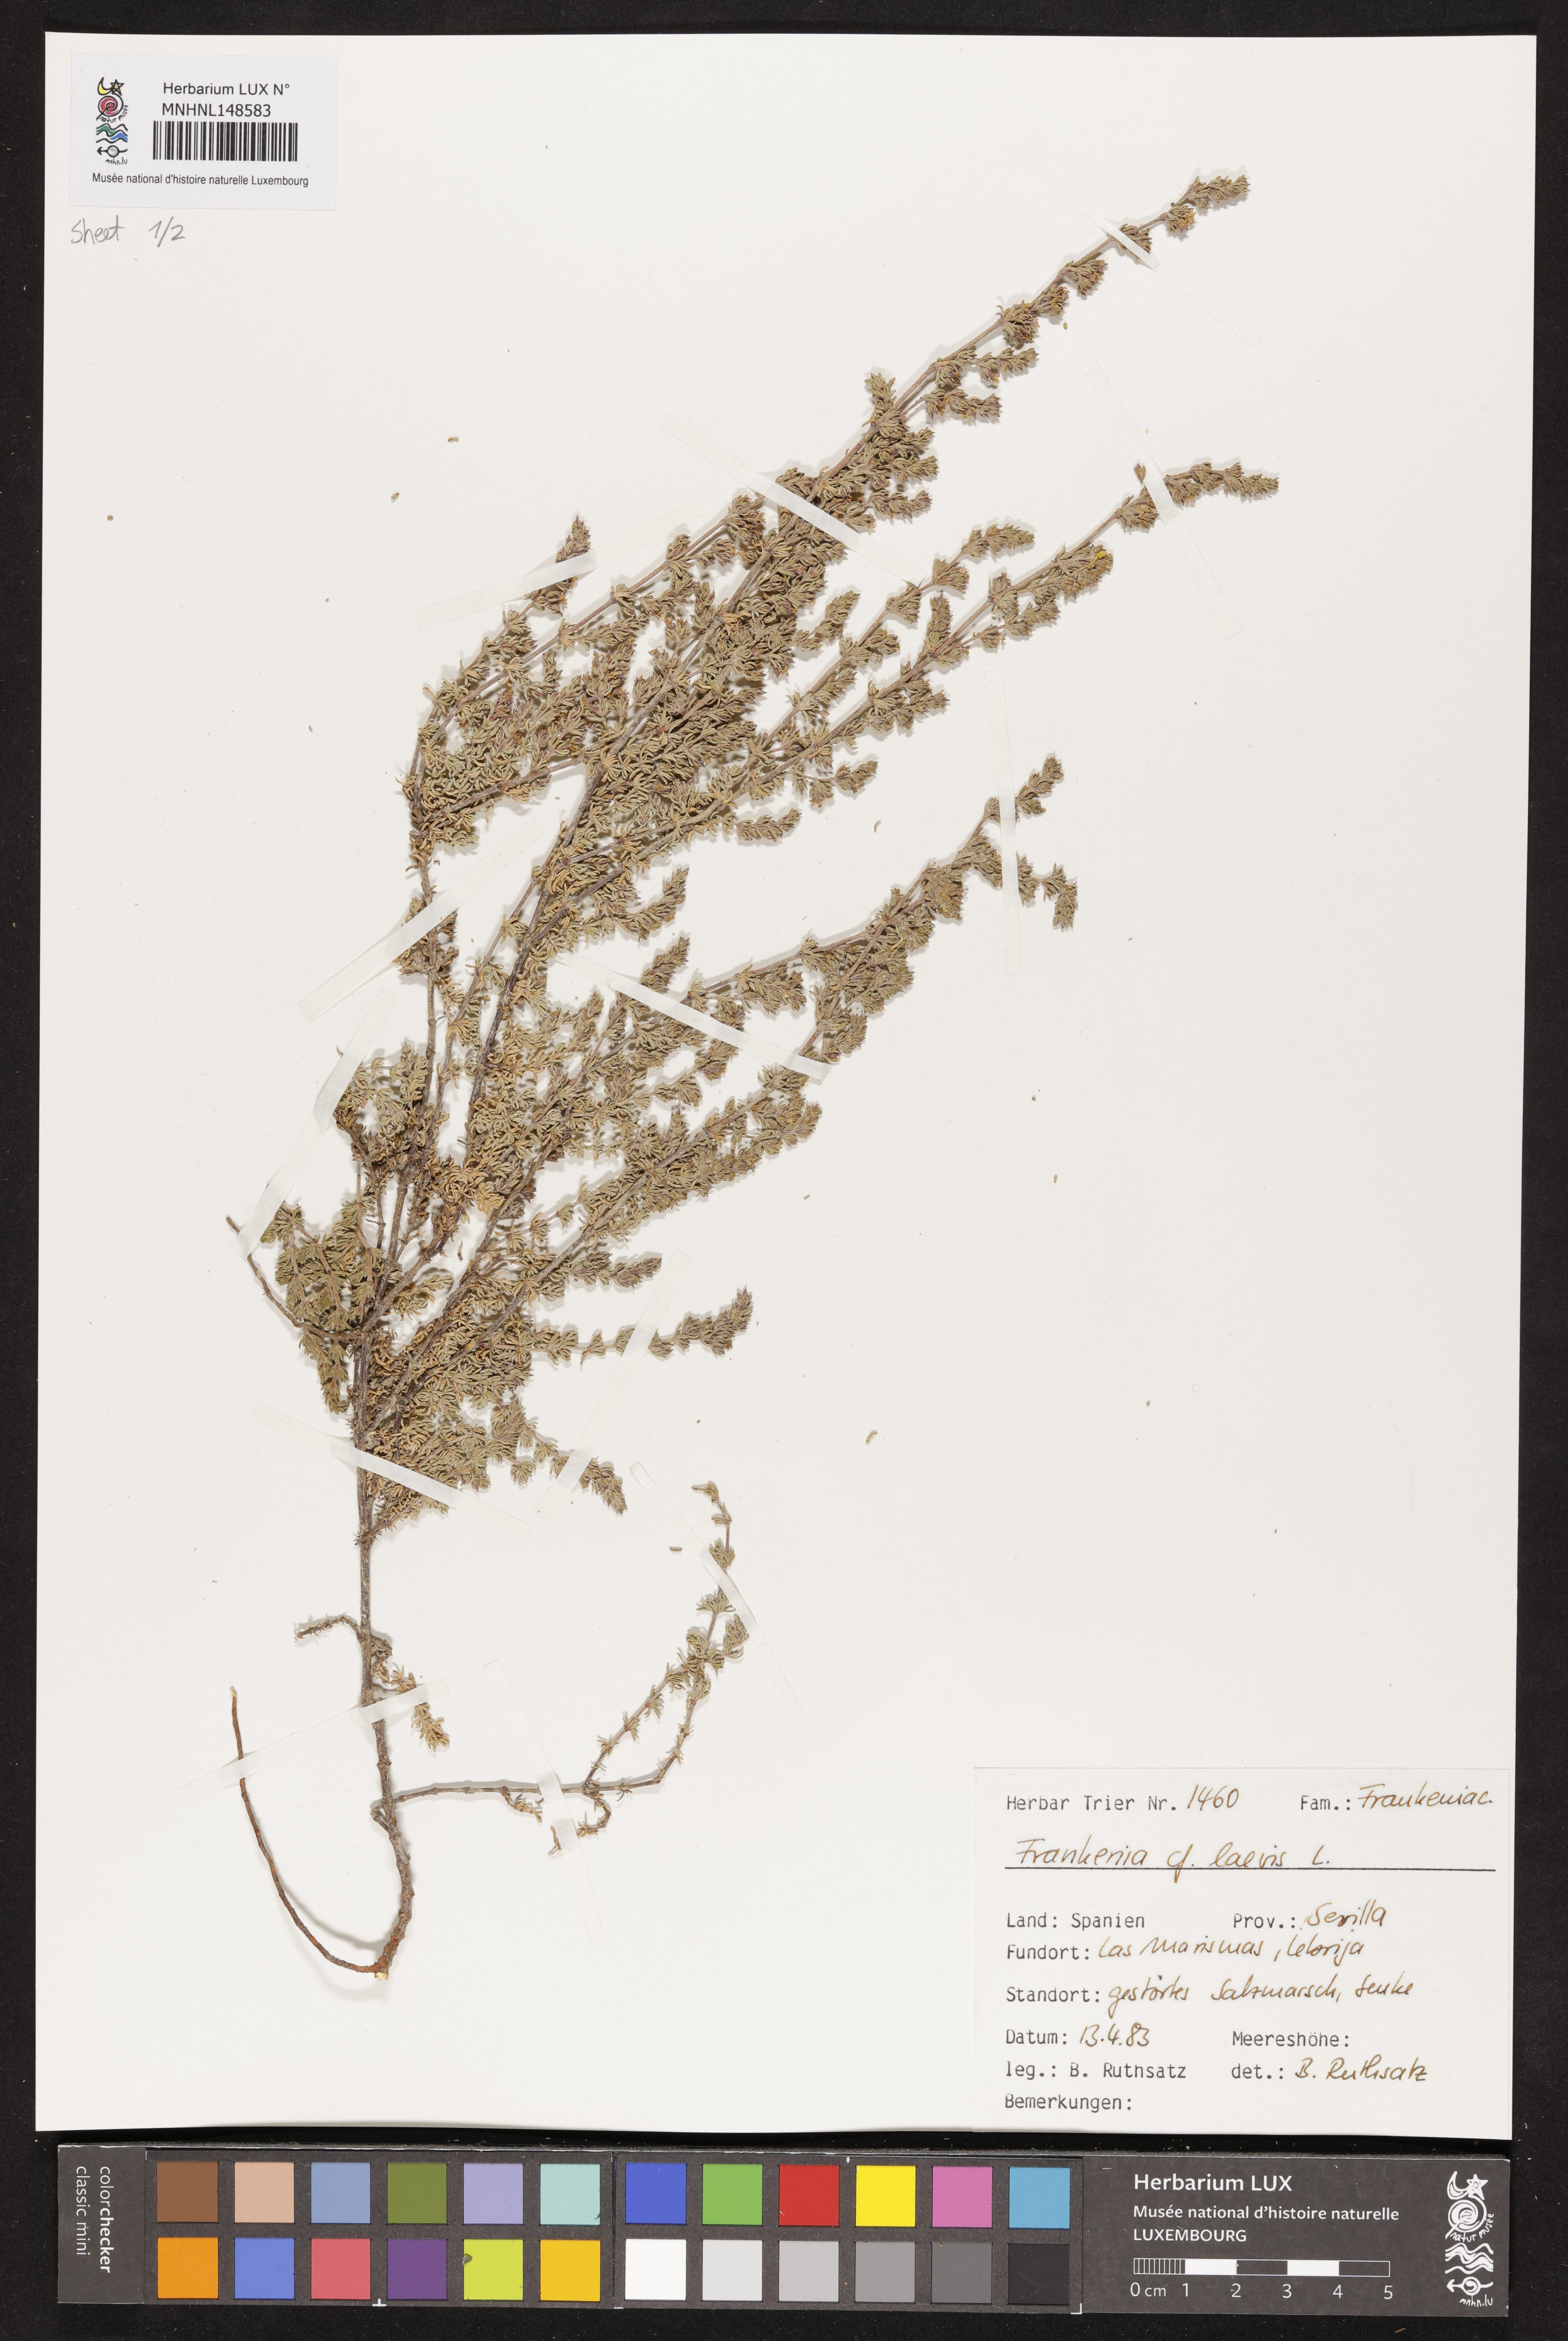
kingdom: Plantae
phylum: Tracheophyta
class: Magnoliopsida
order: Caryophyllales
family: Frankeniaceae
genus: Frankenia
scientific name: Frankenia laevis
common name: Sea-heath
